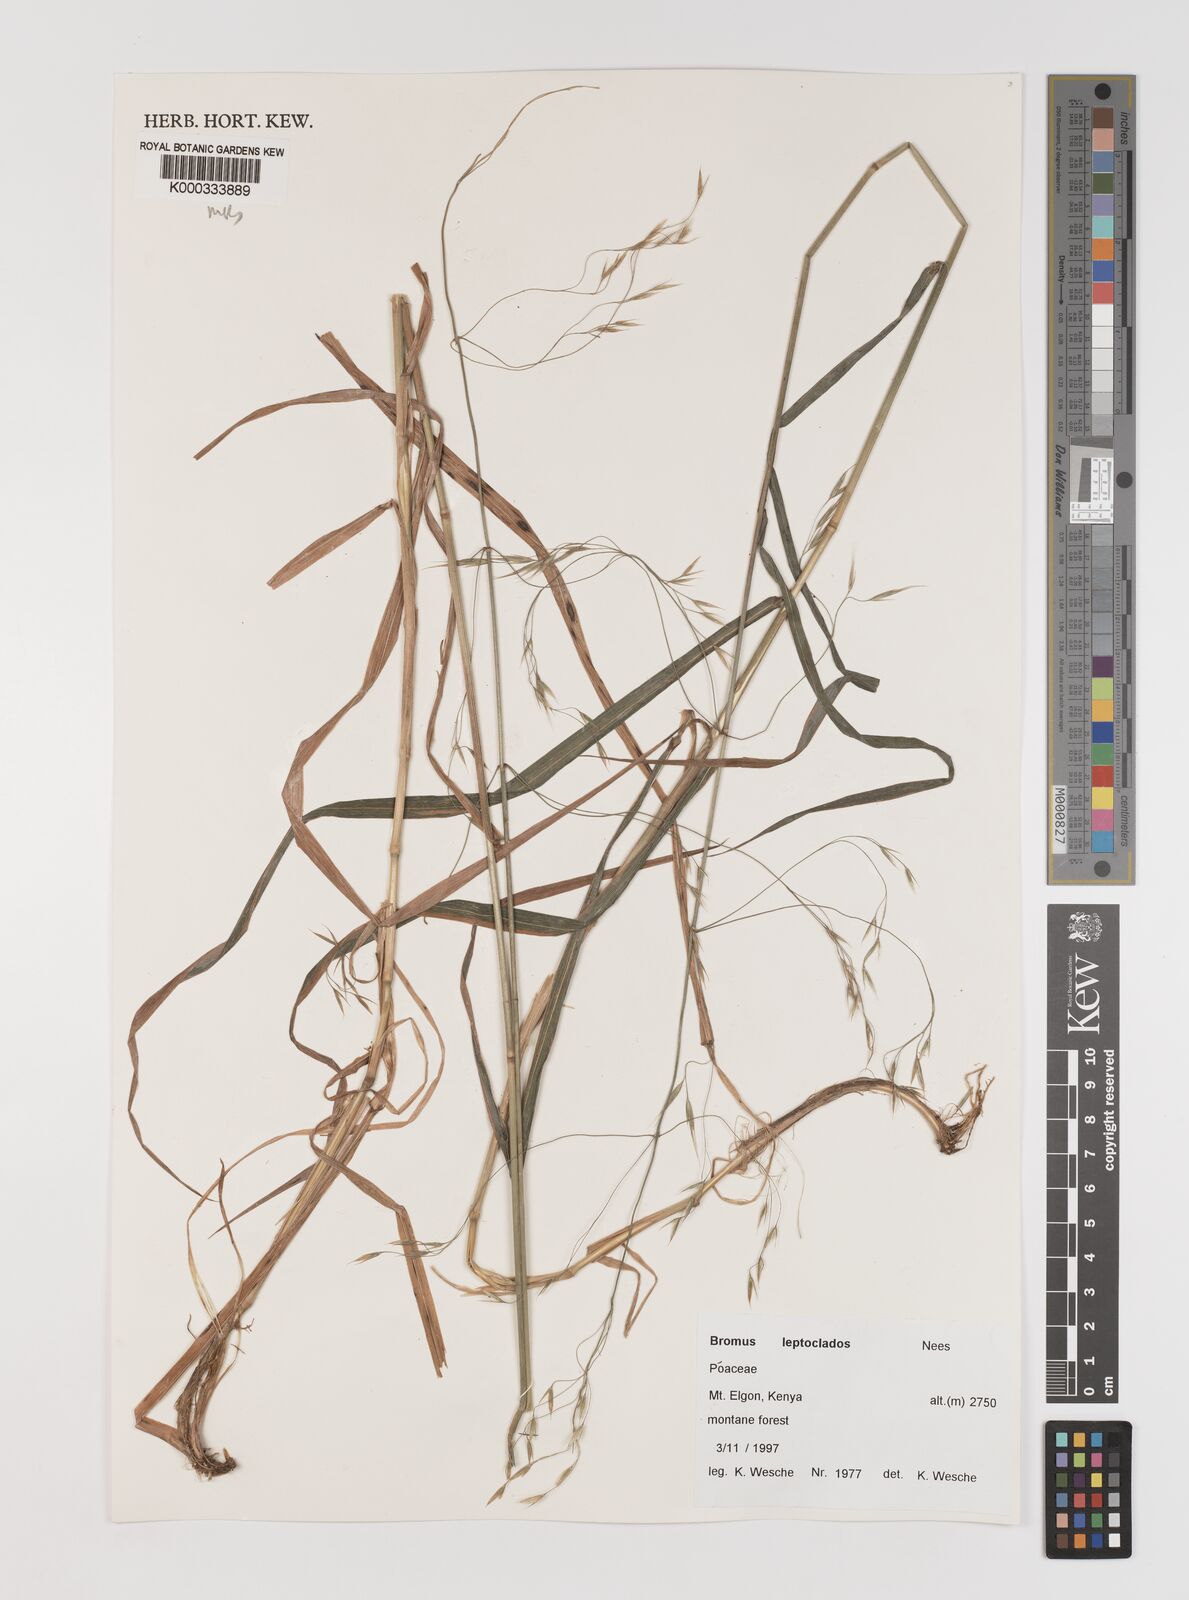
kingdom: Plantae
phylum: Tracheophyta
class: Liliopsida
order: Poales
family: Poaceae
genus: Bromus
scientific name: Bromus leptoclados
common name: Mountain bromegrass
